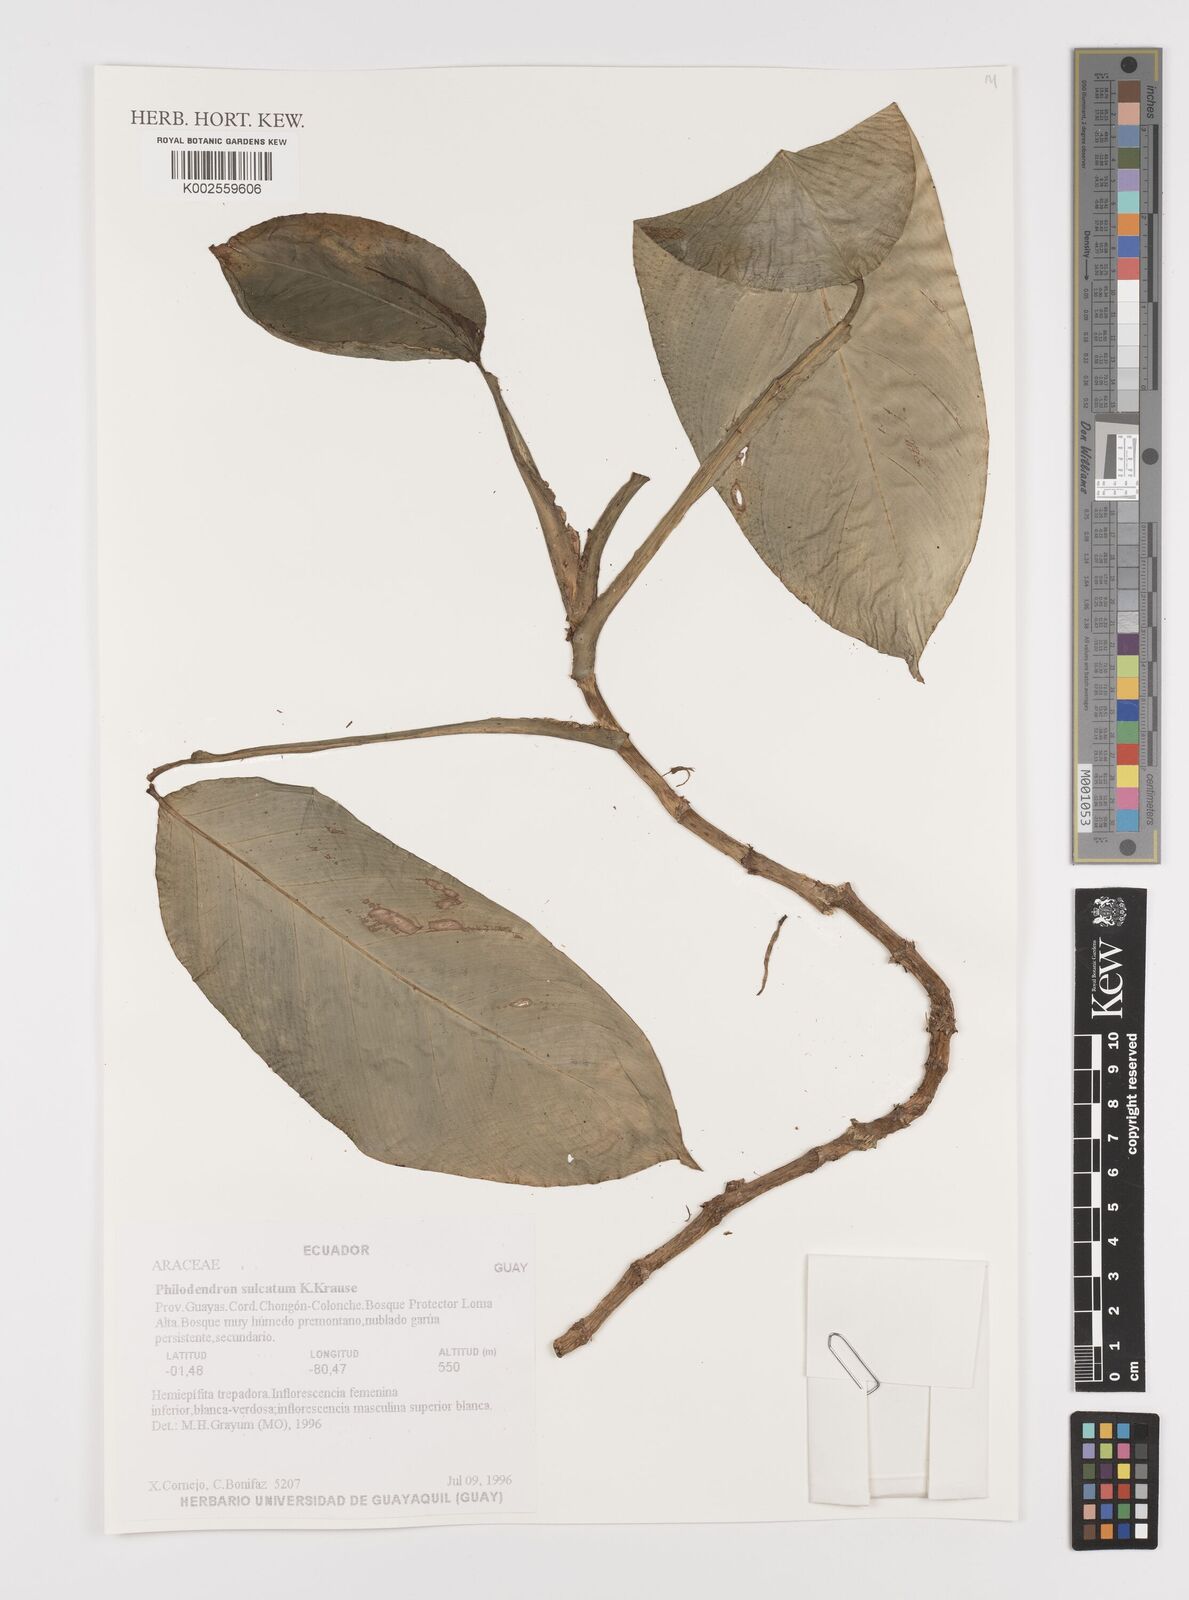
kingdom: Plantae
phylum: Tracheophyta
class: Liliopsida
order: Alismatales
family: Araceae
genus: Philodendron
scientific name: Philodendron sulcatum
